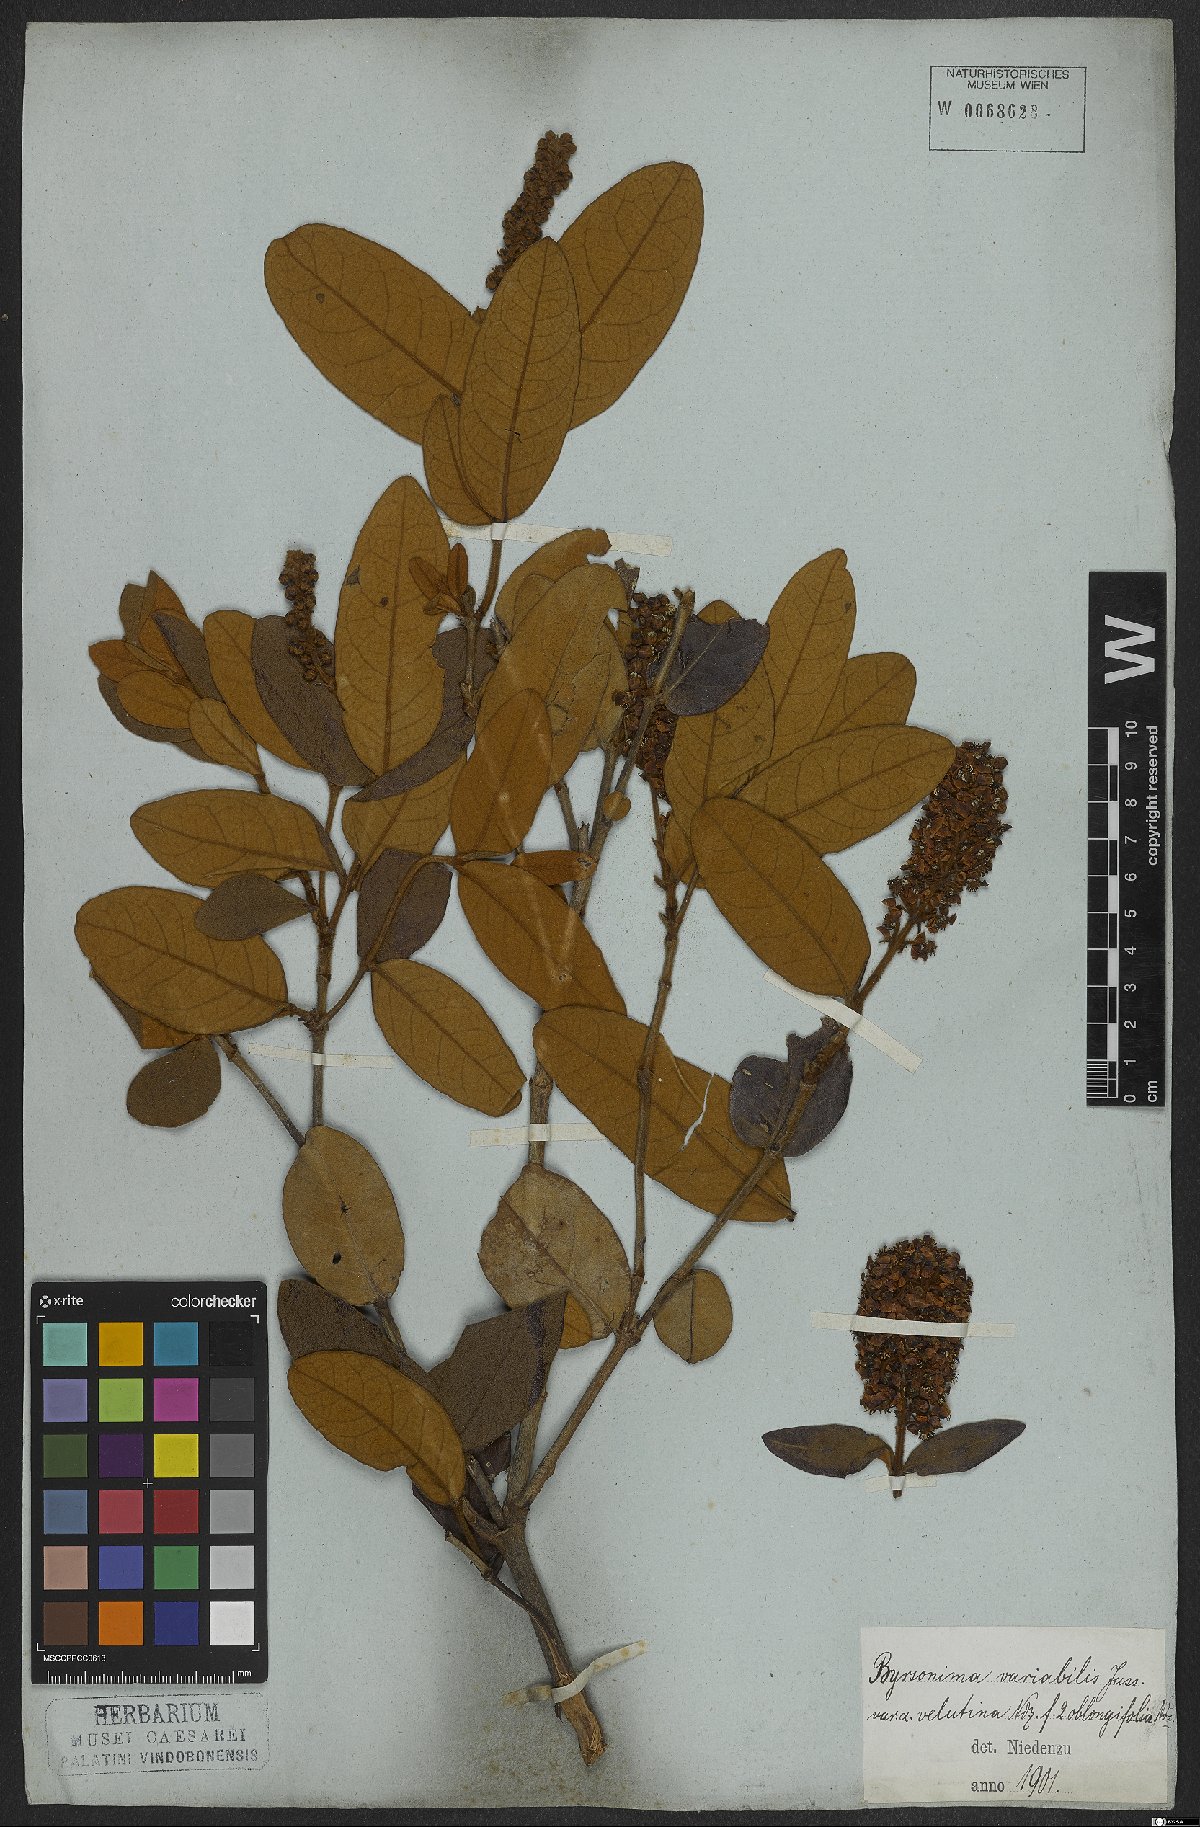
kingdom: Plantae
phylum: Tracheophyta
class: Magnoliopsida
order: Malpighiales
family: Malpighiaceae
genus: Byrsonima
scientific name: Byrsonima variabilis
